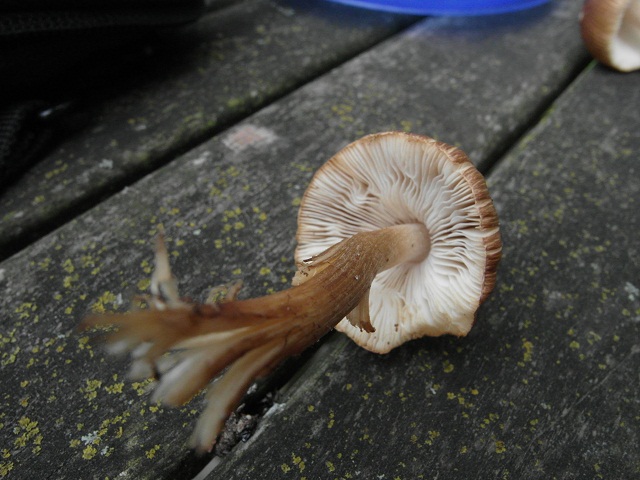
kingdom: Fungi
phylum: Basidiomycota
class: Agaricomycetes
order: Agaricales
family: Inocybaceae
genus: Inocybe
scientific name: Inocybe napipes
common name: roeknoldet trævlhat
